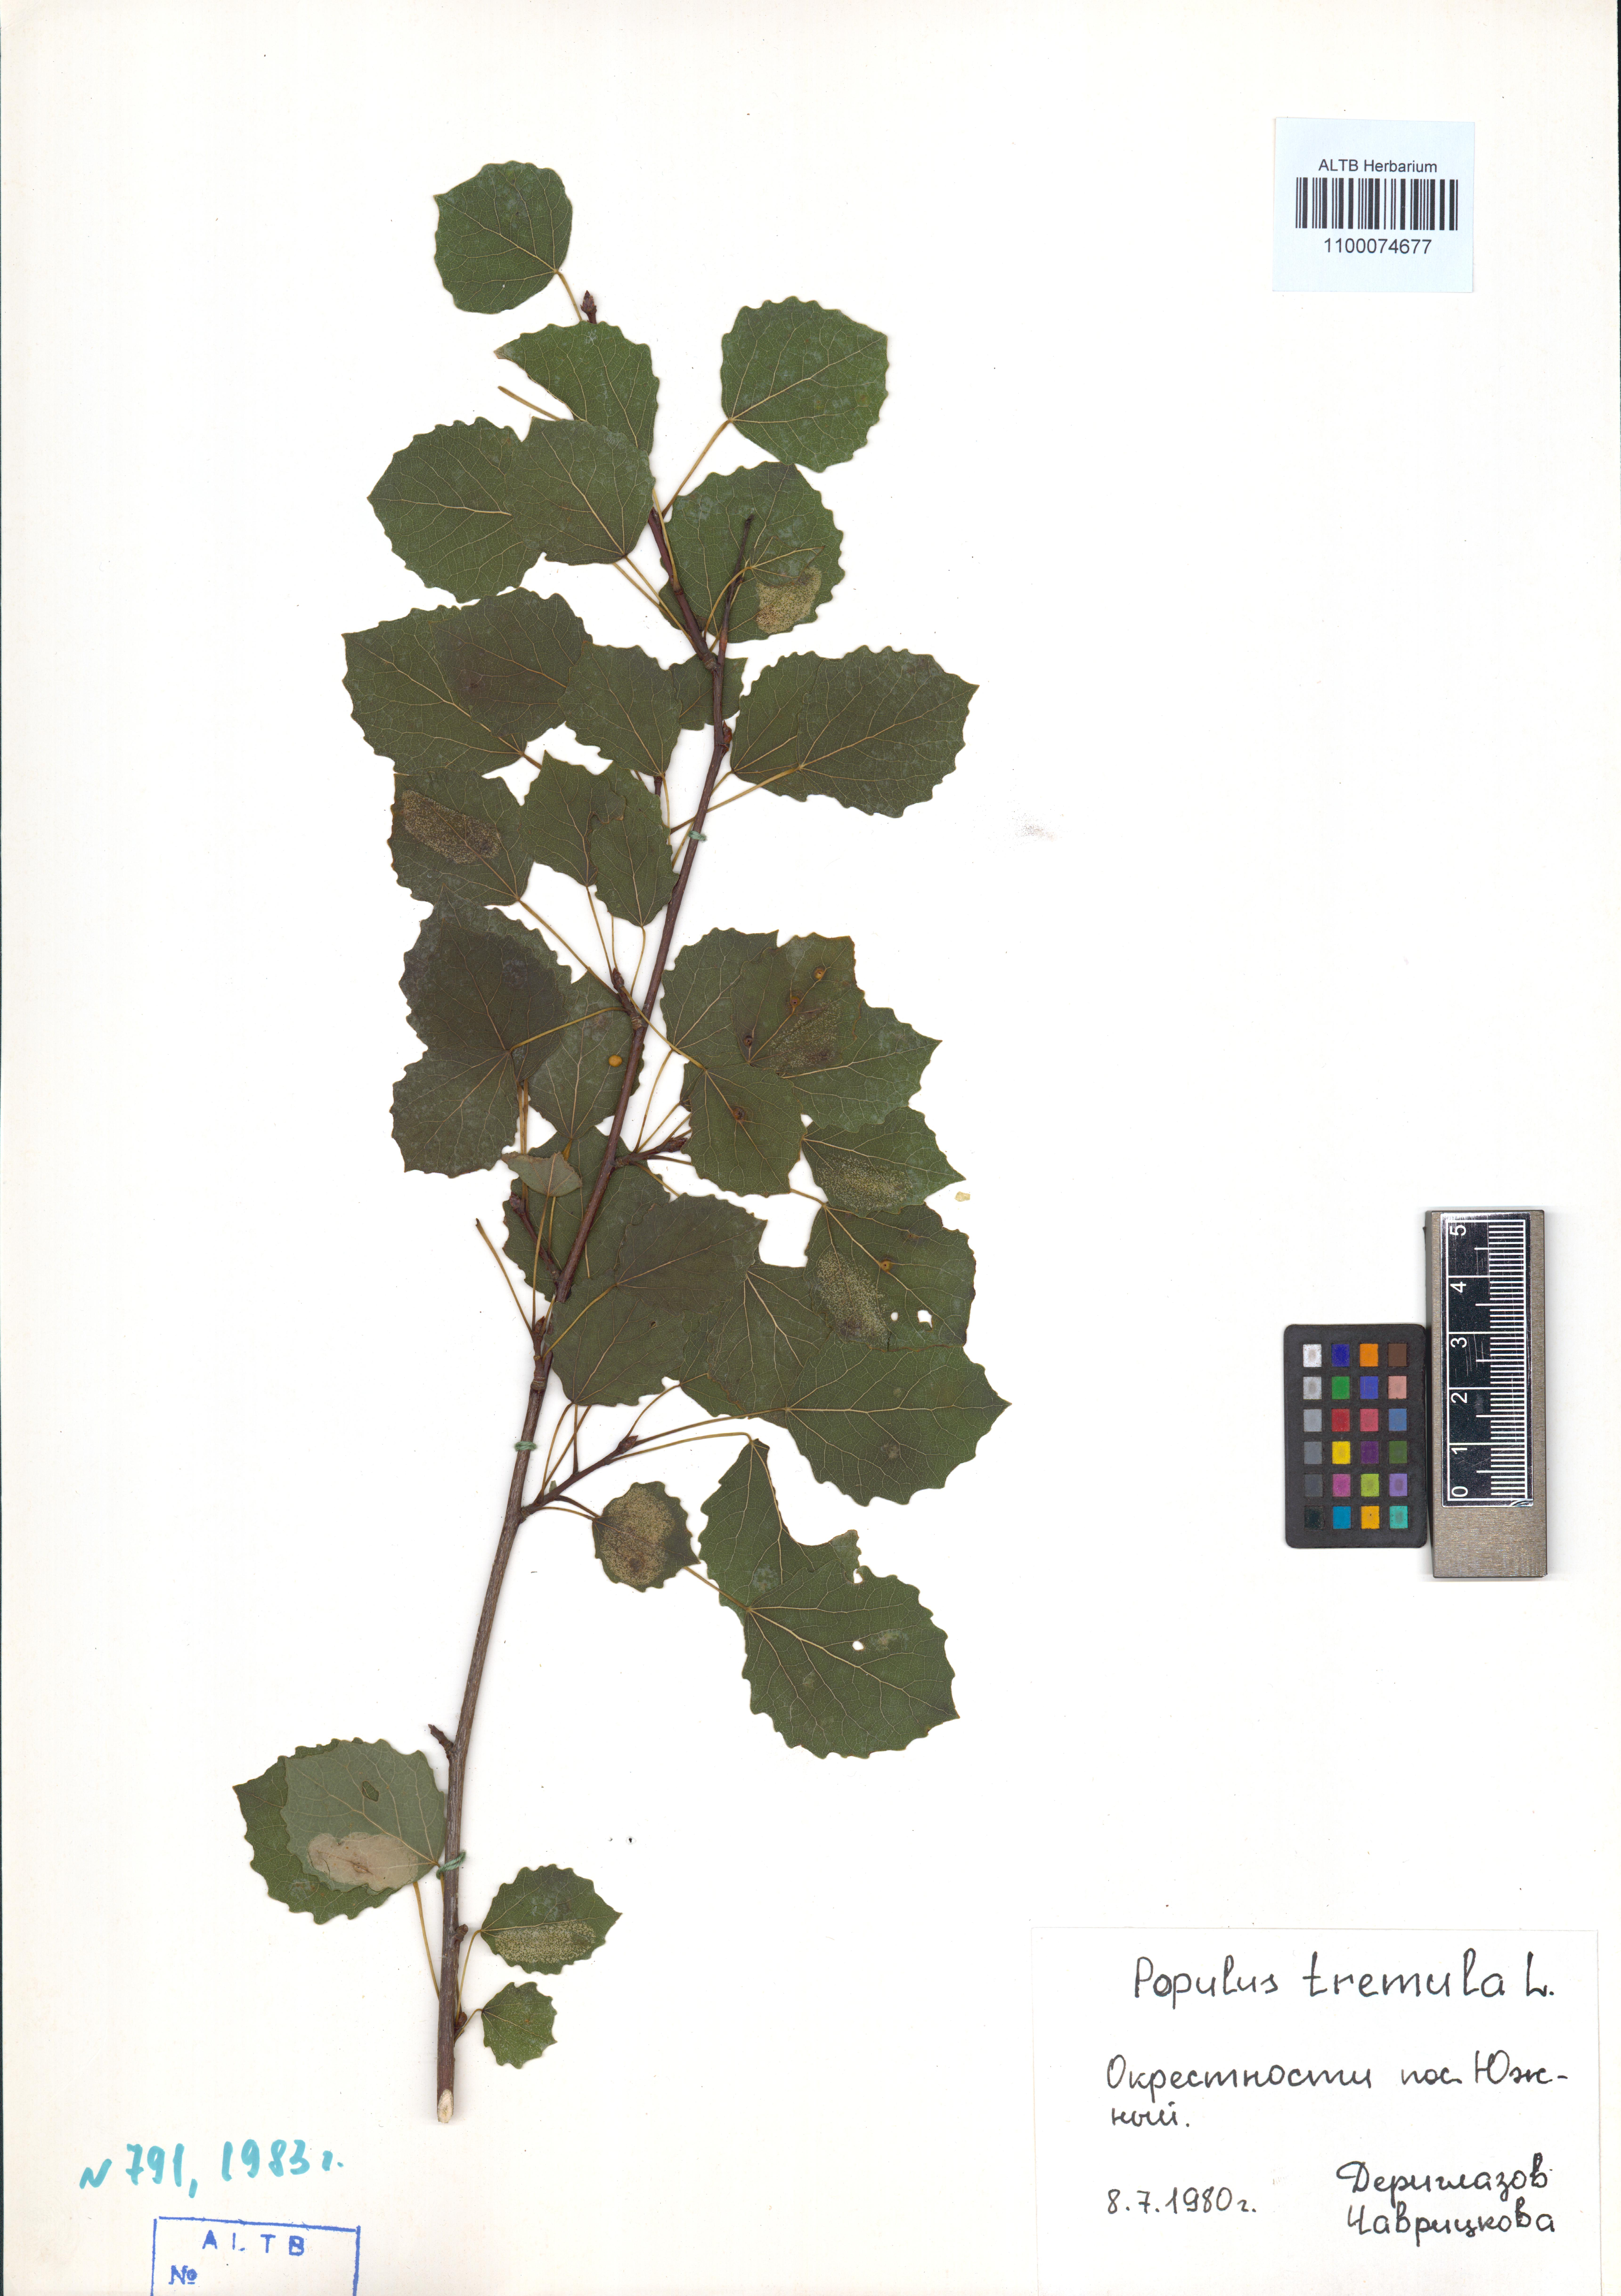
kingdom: Plantae
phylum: Tracheophyta
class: Magnoliopsida
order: Malpighiales
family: Salicaceae
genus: Populus
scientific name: Populus tremula
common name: European aspen
